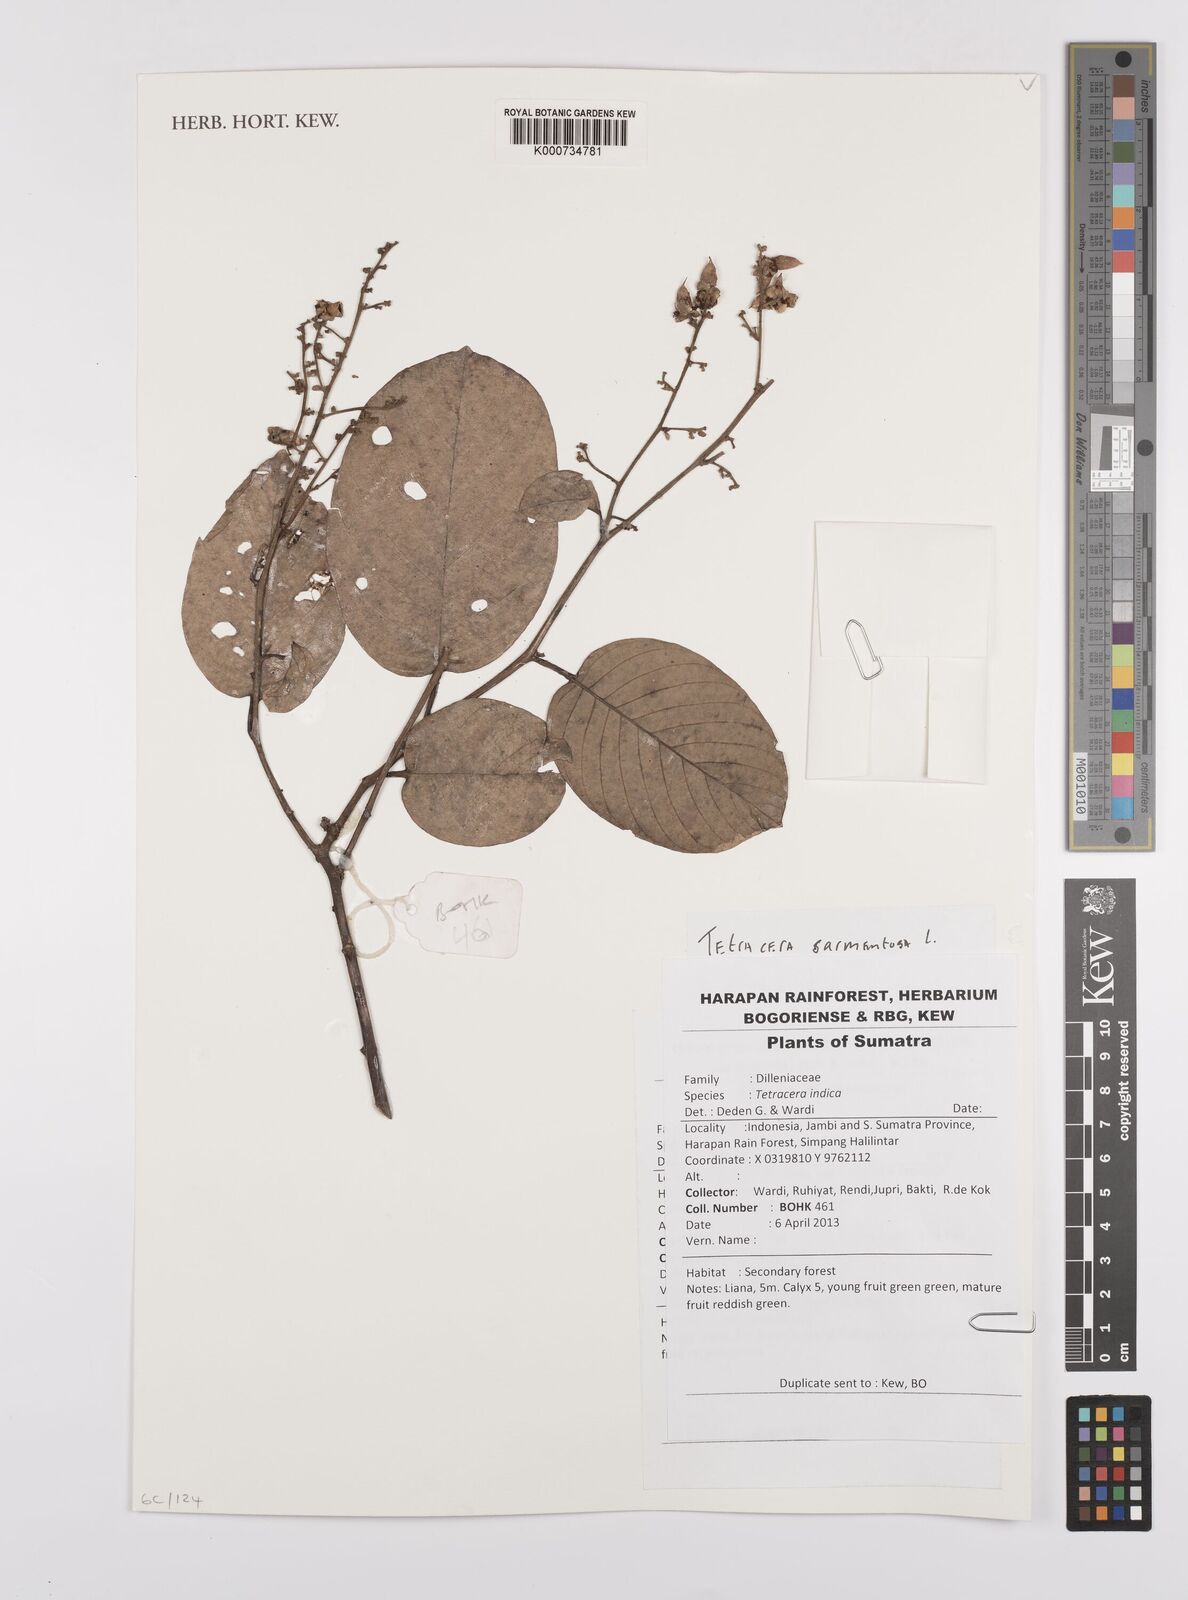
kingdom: Plantae
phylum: Tracheophyta
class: Magnoliopsida
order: Dilleniales
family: Dilleniaceae
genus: Tetracera
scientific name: Tetracera sarmentosa
